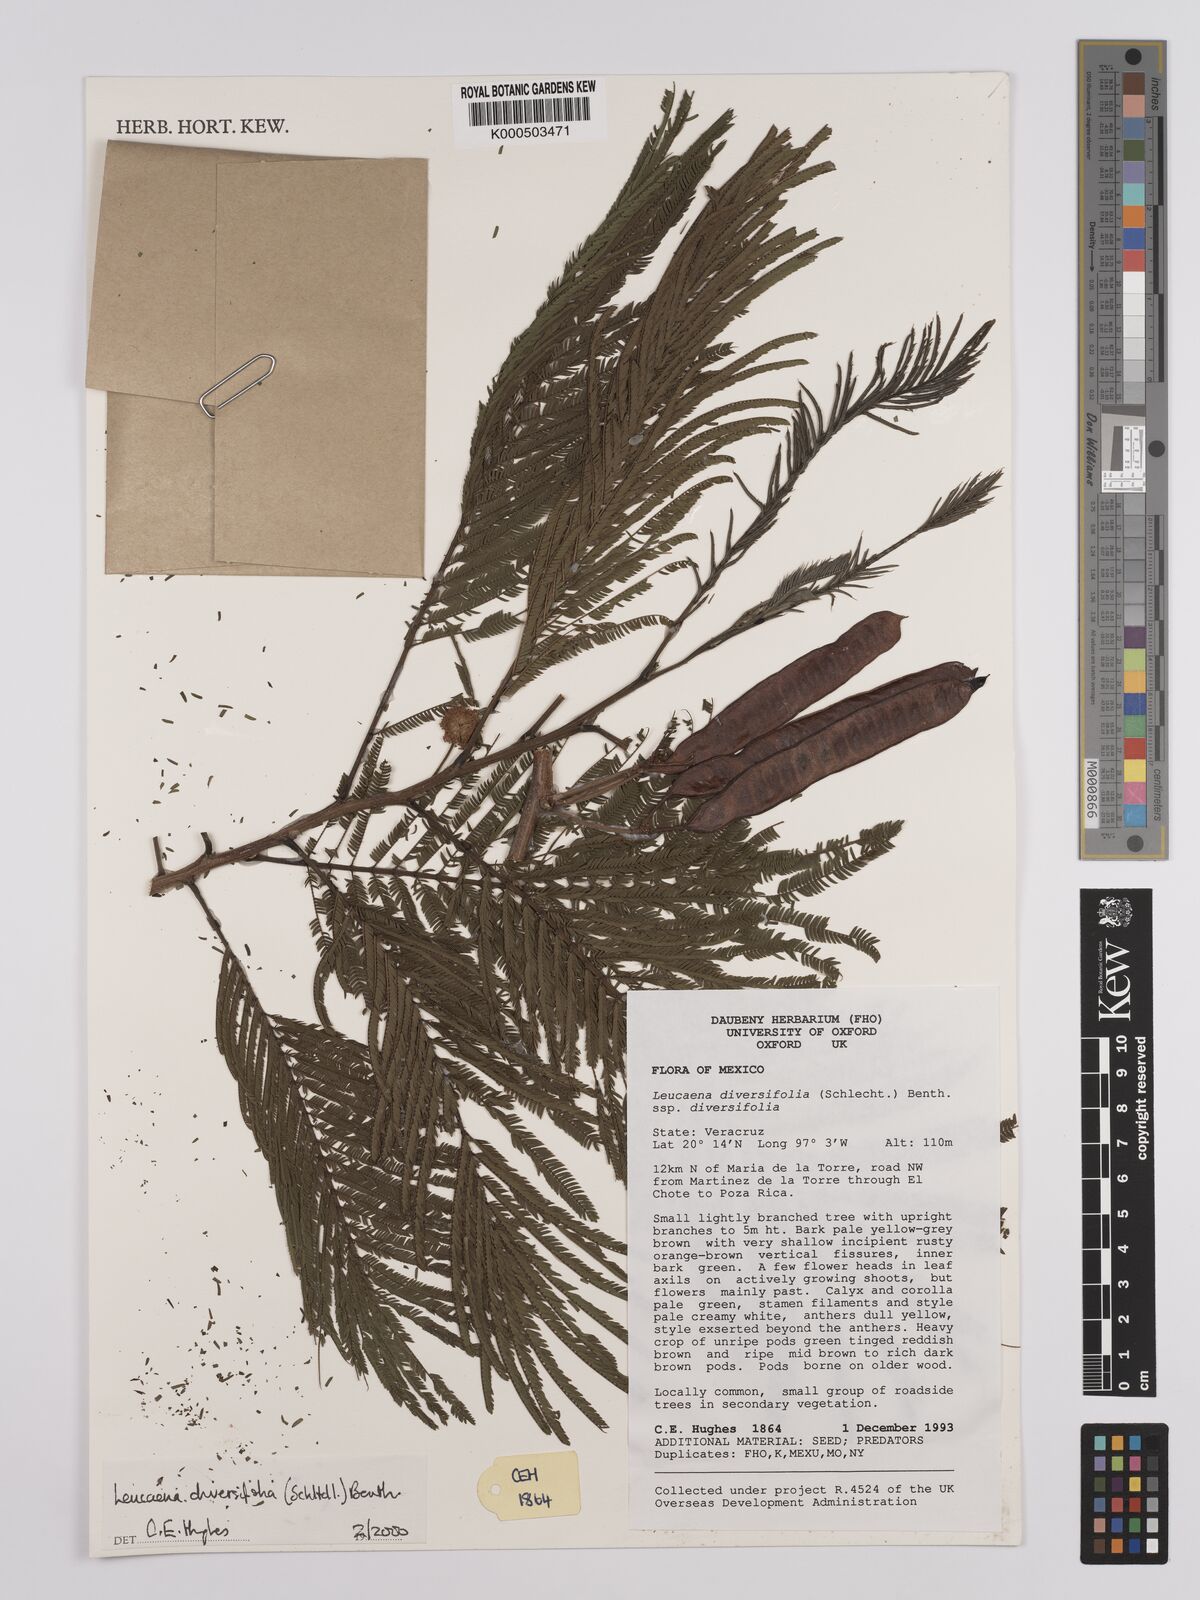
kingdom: Plantae
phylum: Tracheophyta
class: Magnoliopsida
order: Fabales
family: Fabaceae
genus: Leucaena
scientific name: Leucaena diversifolia
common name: Red leucaena
